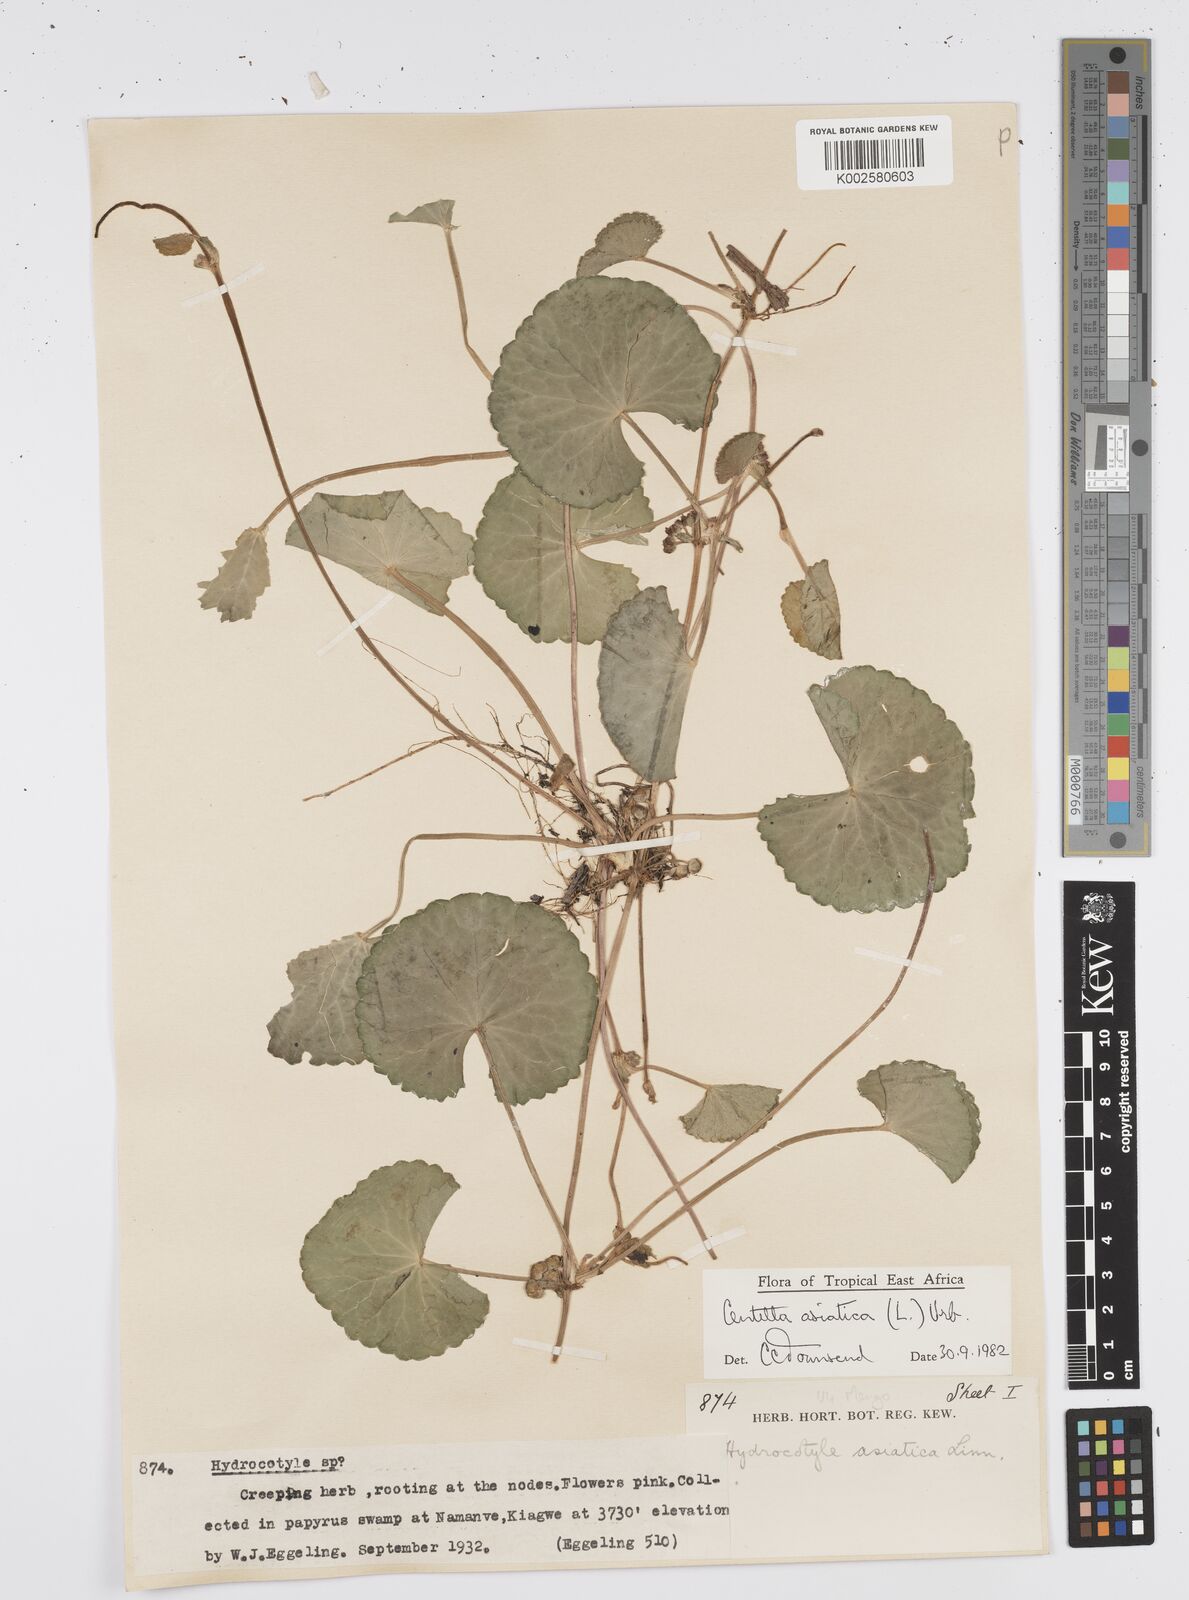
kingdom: Plantae
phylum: Tracheophyta
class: Magnoliopsida
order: Apiales
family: Apiaceae
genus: Centella
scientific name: Centella asiatica
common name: Spadeleaf
